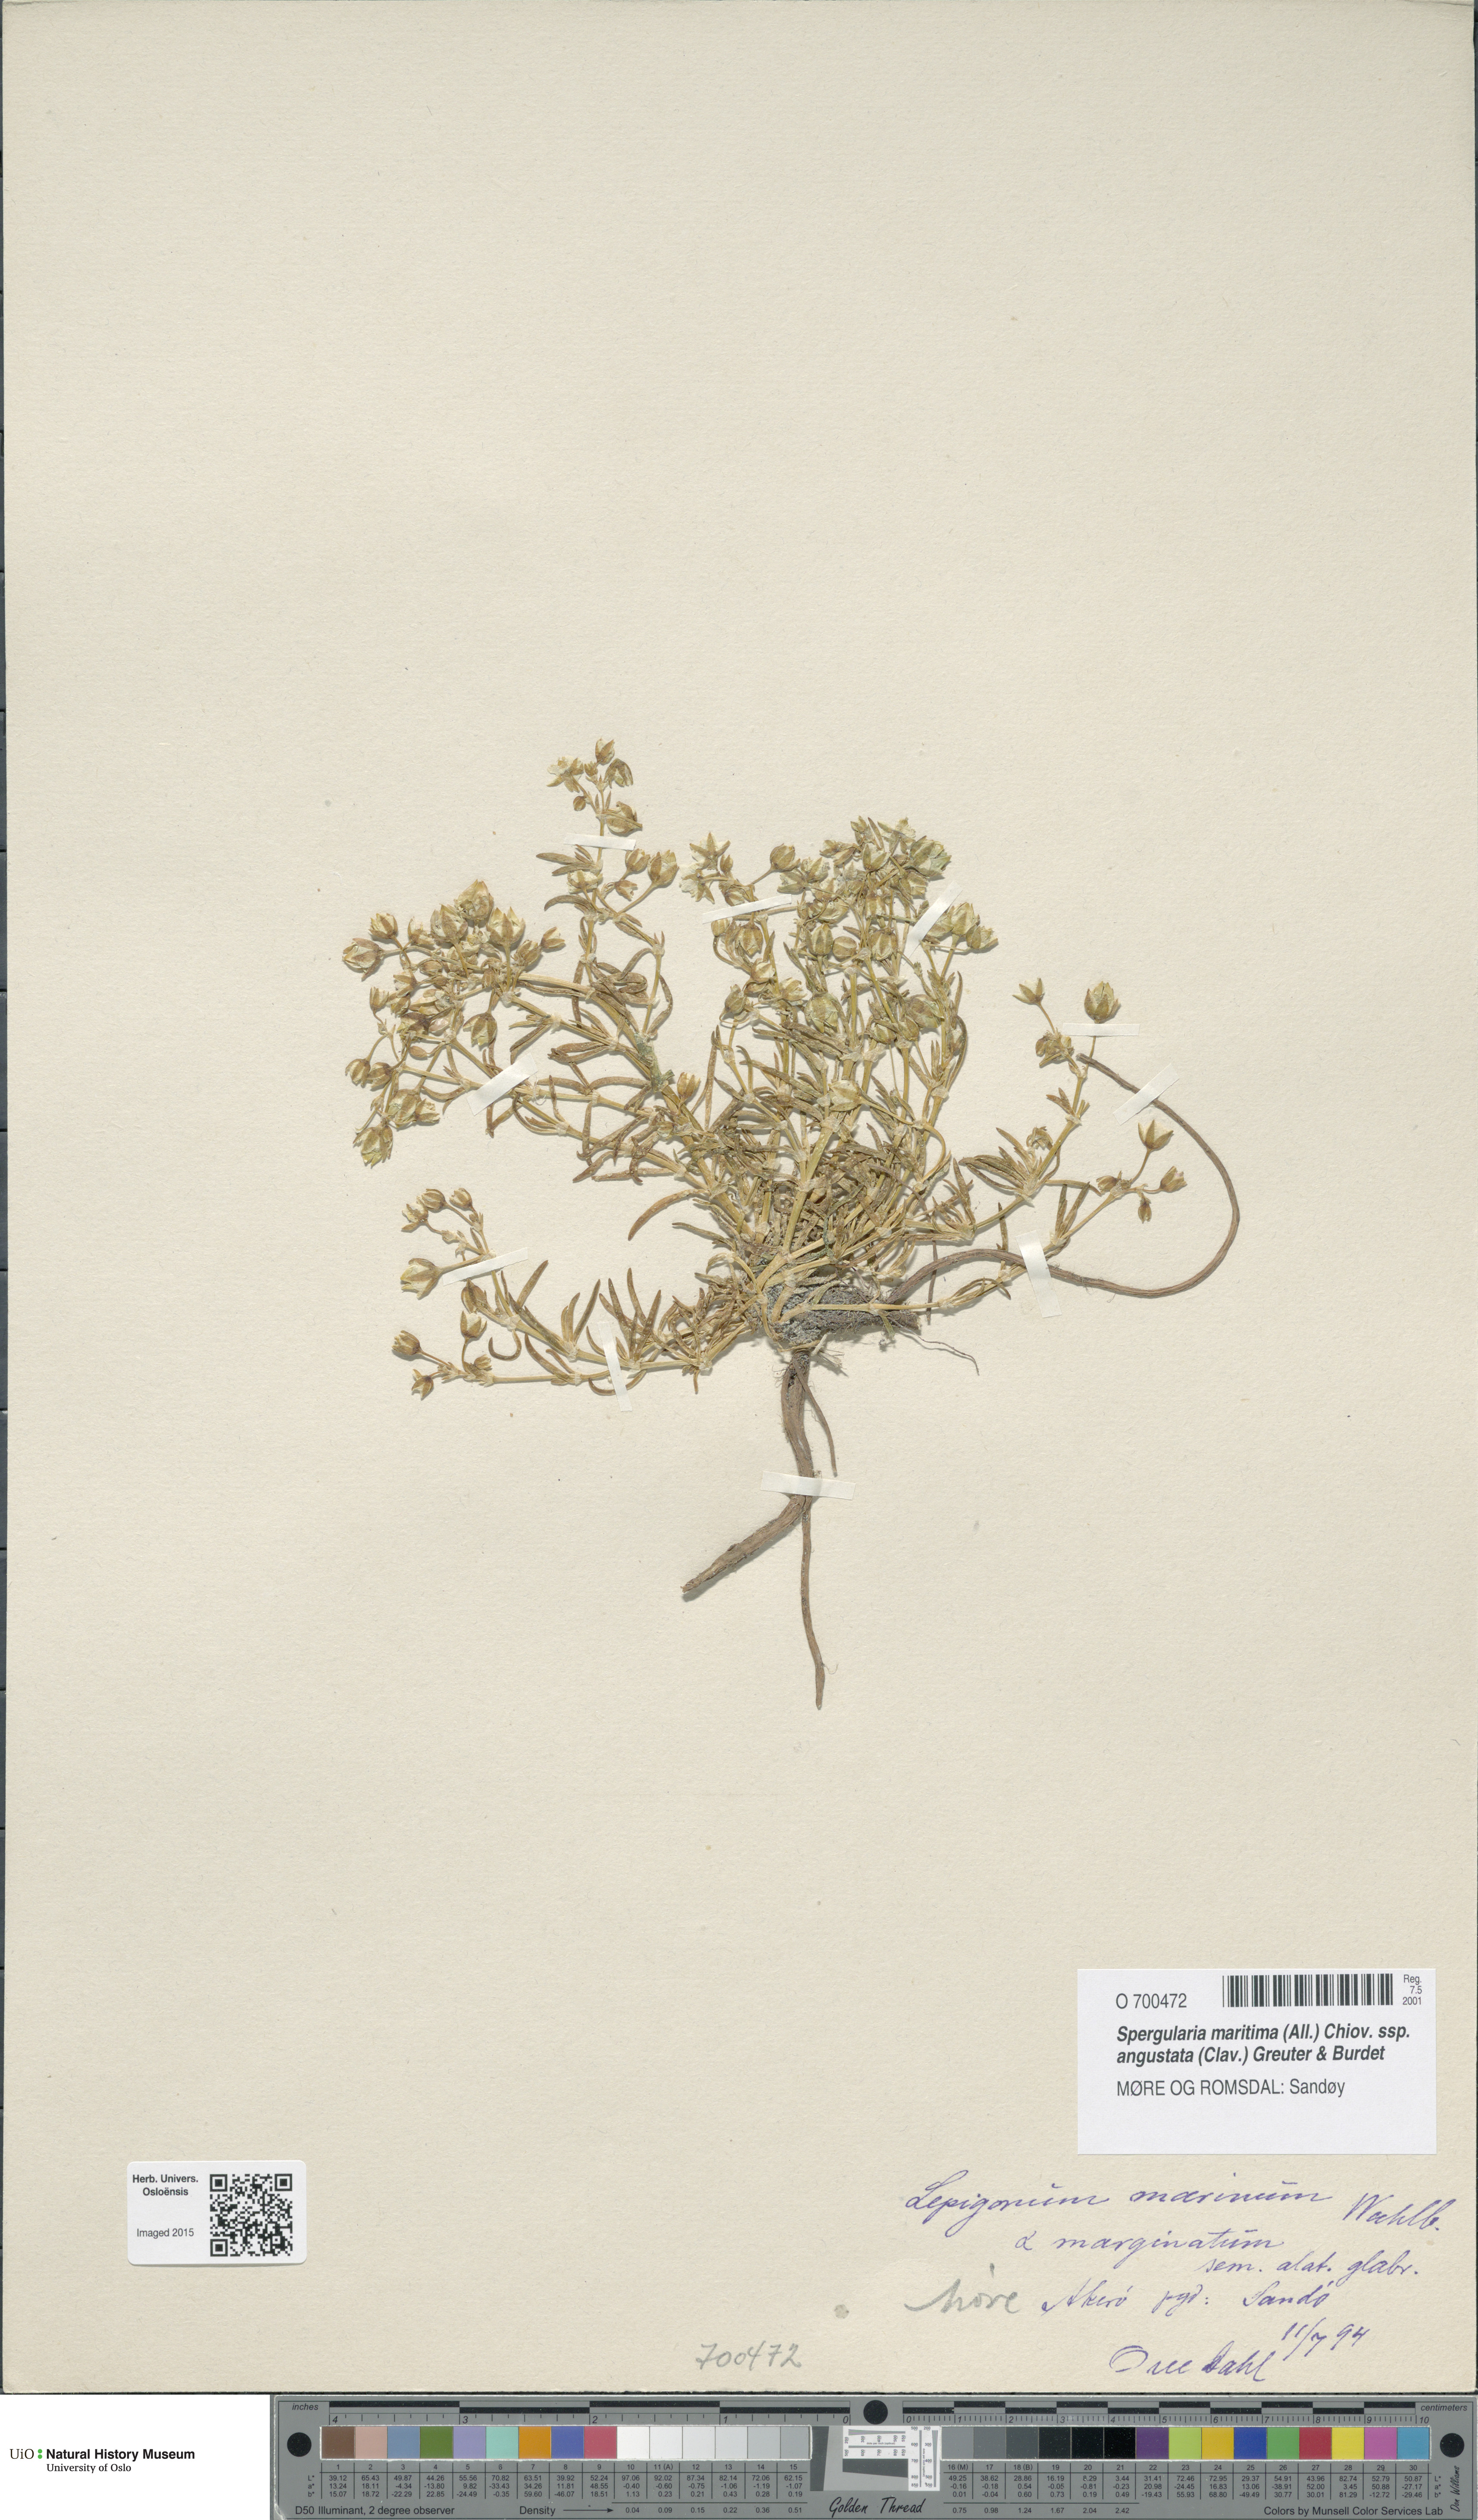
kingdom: Plantae
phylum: Tracheophyta
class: Magnoliopsida
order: Caryophyllales
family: Caryophyllaceae
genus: Spergularia
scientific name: Spergularia marina
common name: Lesser sea-spurrey
